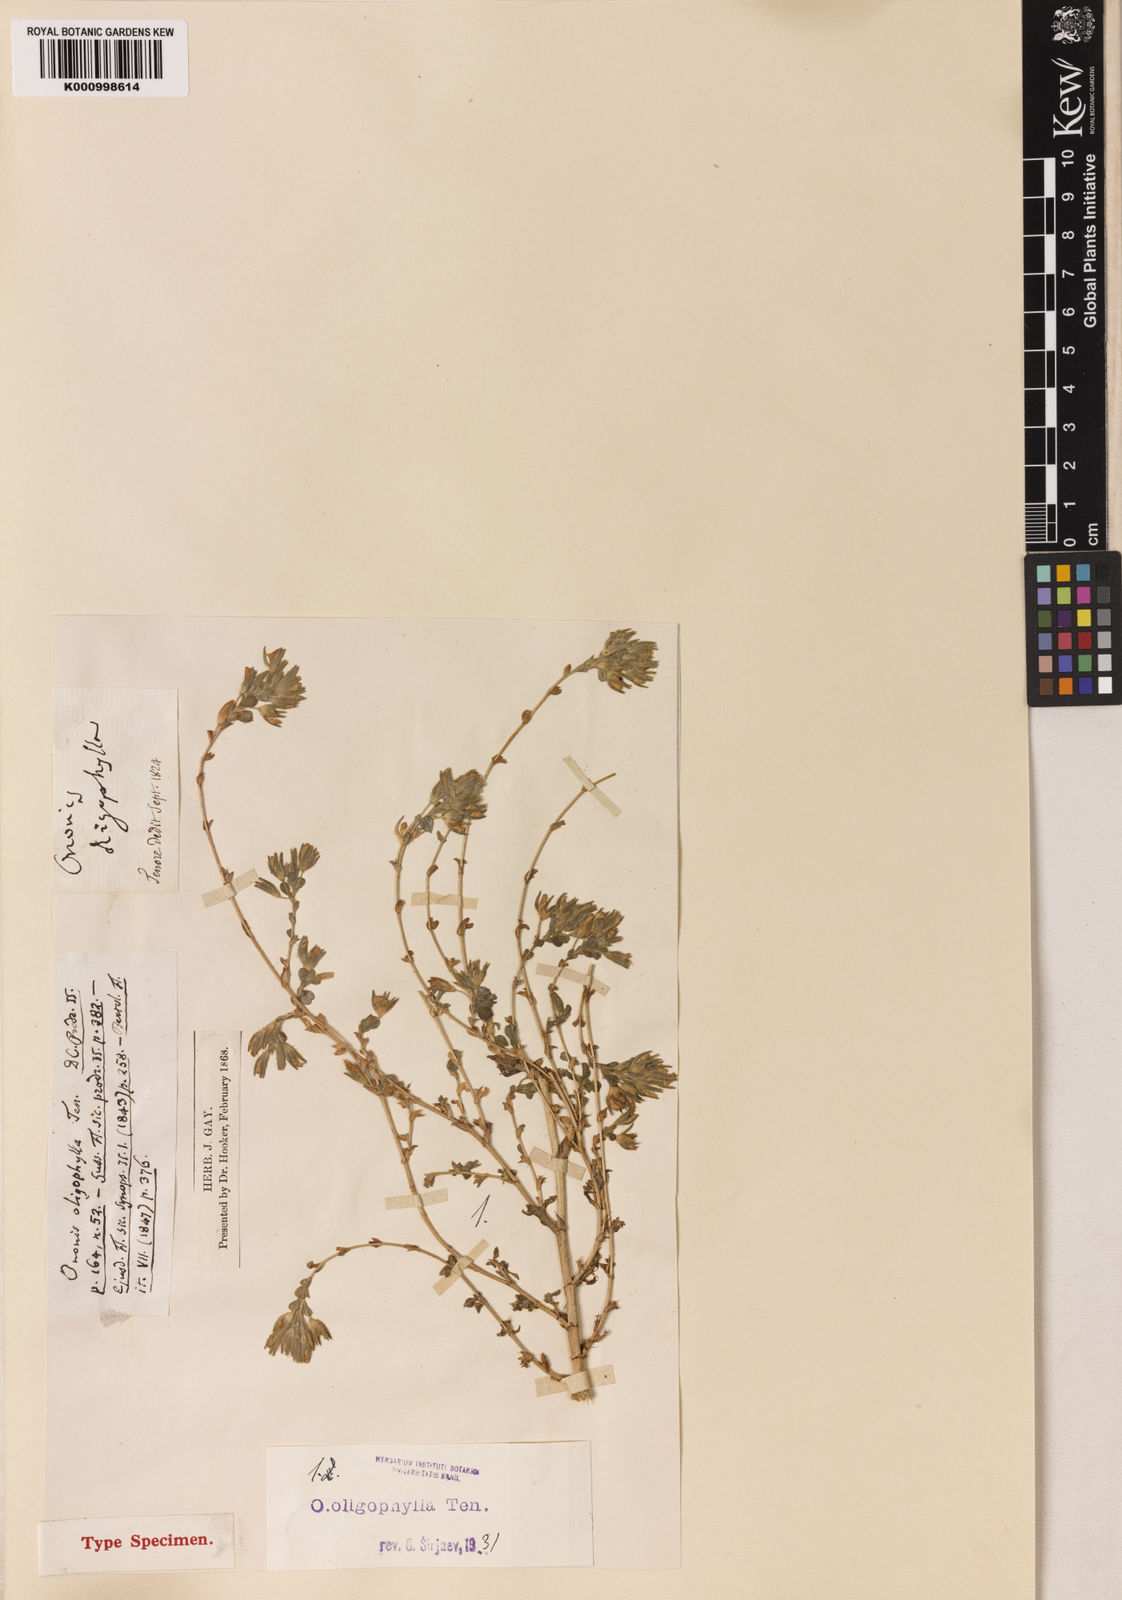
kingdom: Plantae
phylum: Tracheophyta
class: Magnoliopsida
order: Fabales
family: Fabaceae
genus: Ononis
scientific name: Ononis oligophylla
